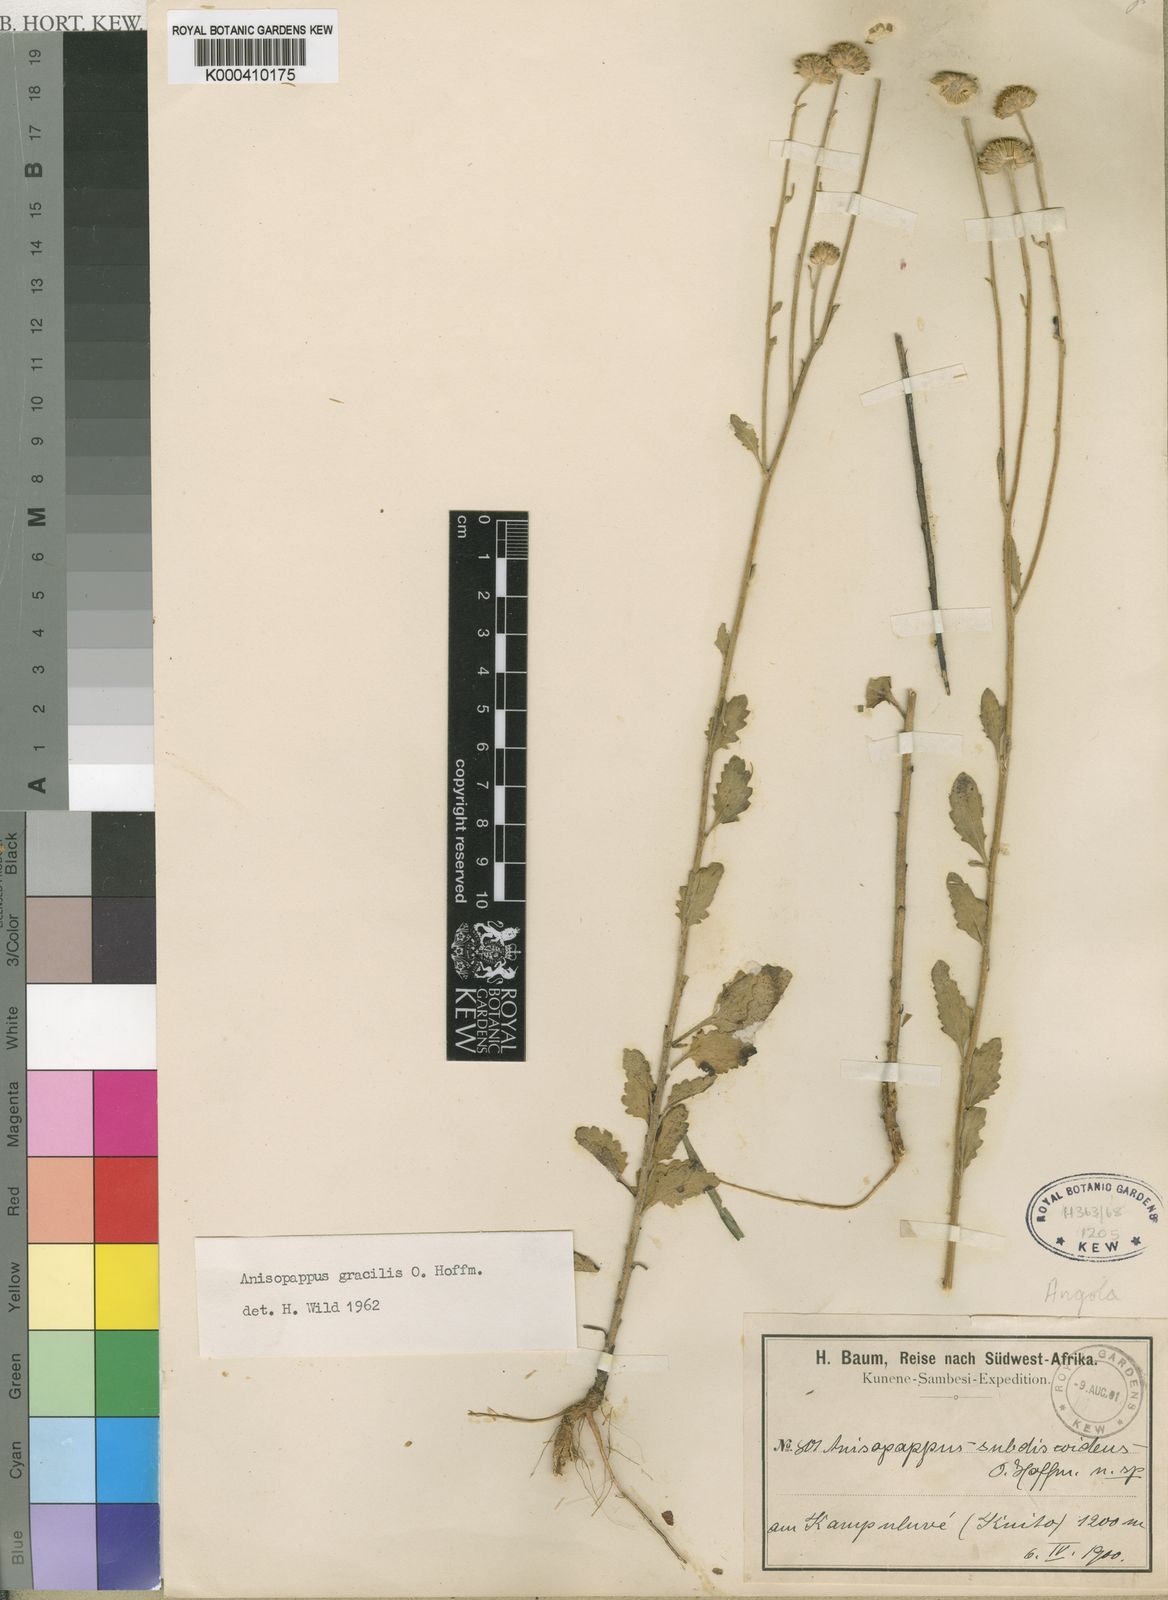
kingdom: Plantae
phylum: Tracheophyta
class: Magnoliopsida
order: Asterales
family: Asteraceae
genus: Anisopappus
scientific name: Anisopappus africanus
